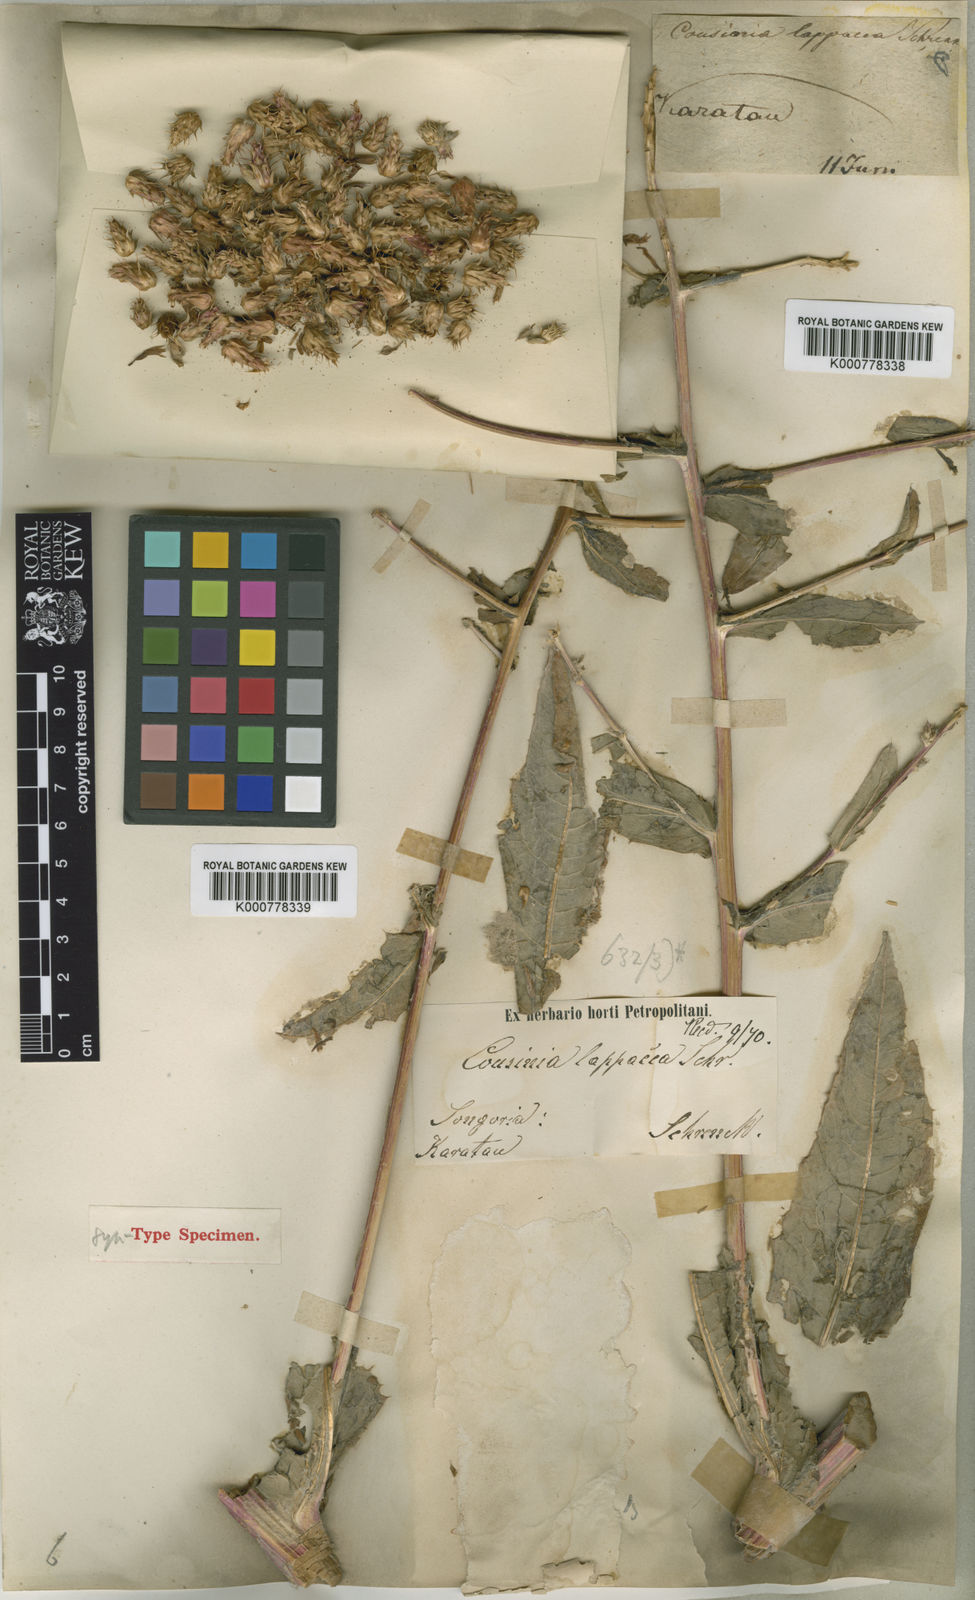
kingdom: Plantae
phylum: Tracheophyta
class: Magnoliopsida
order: Asterales
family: Asteraceae
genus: Arctium
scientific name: Arctium lappaceum
